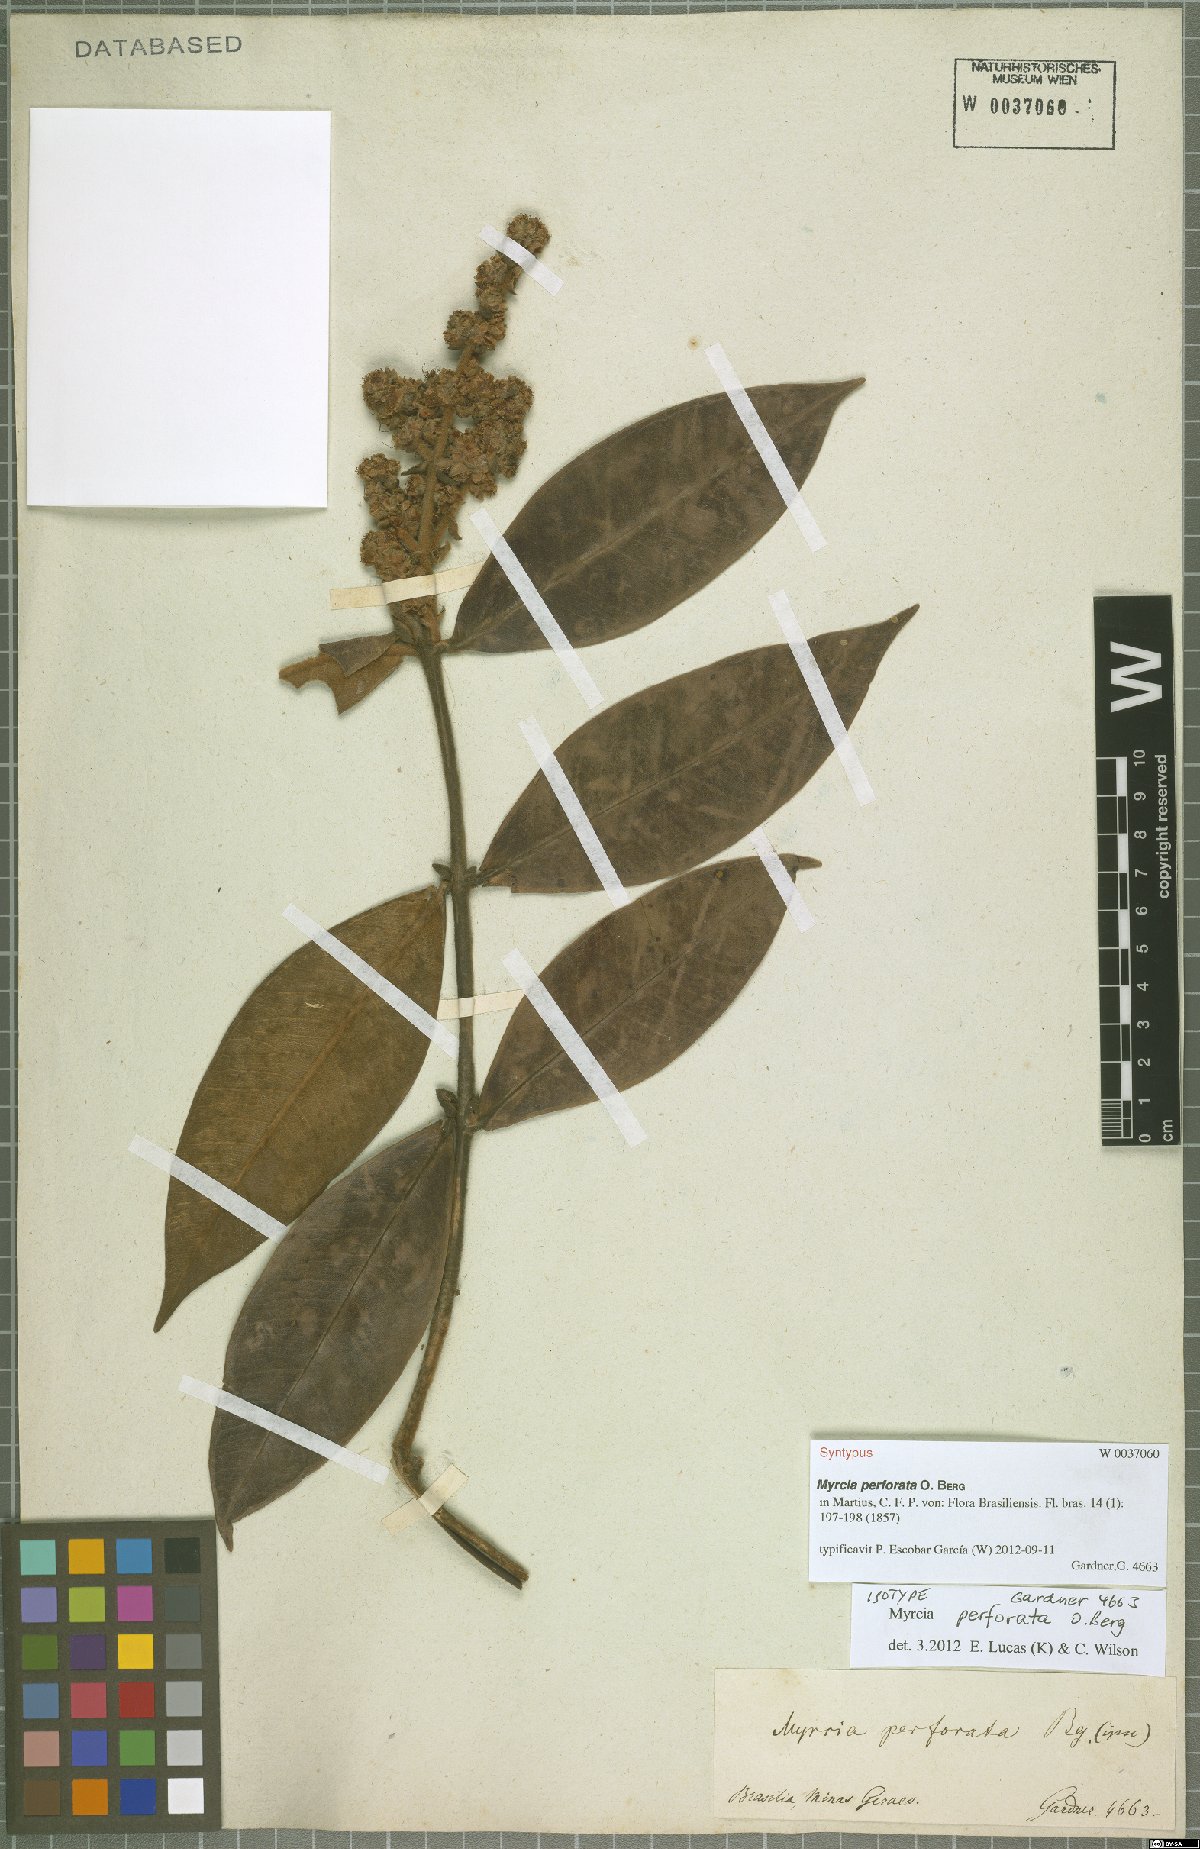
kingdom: Plantae
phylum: Tracheophyta
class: Magnoliopsida
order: Myrtales
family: Myrtaceae
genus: Myrcia
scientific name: Myrcia perforata
